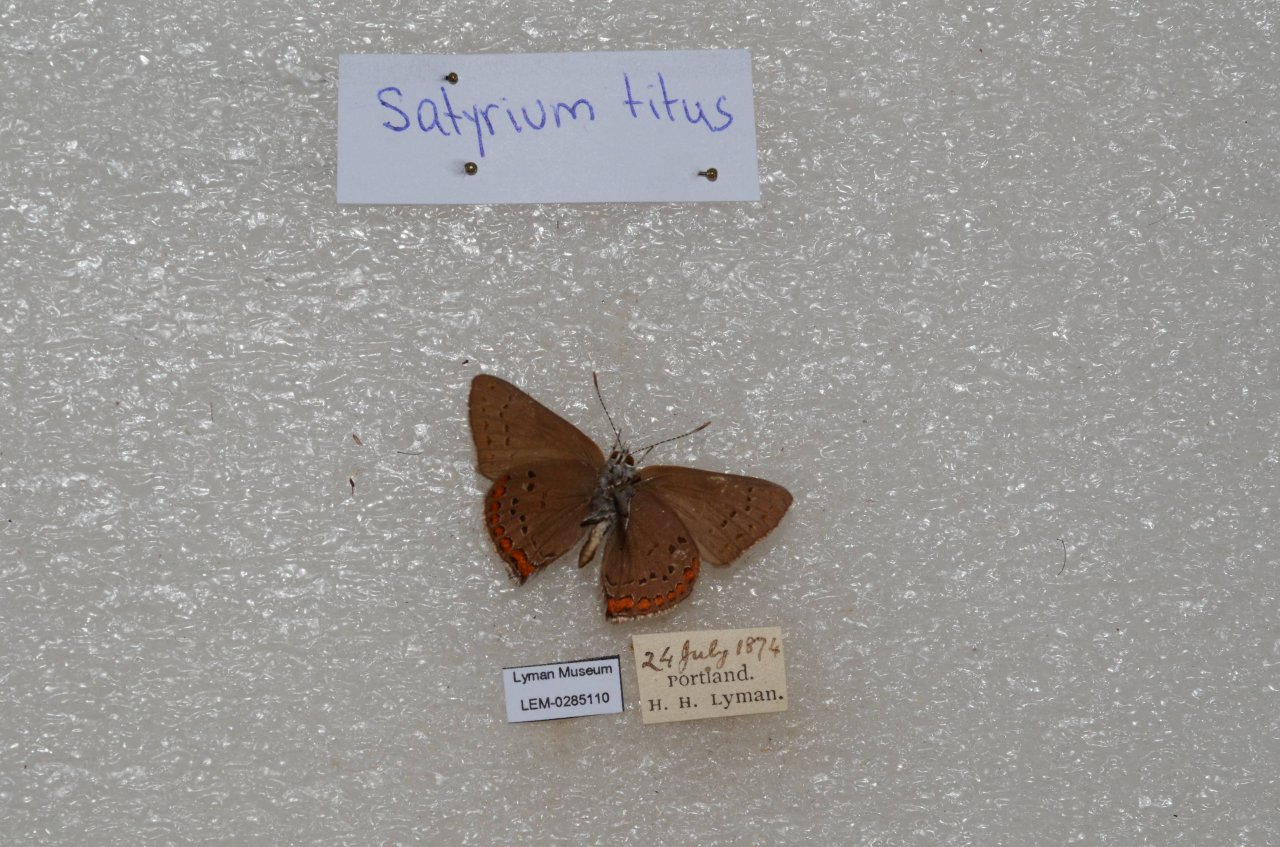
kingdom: Animalia
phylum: Arthropoda
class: Insecta
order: Lepidoptera
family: Lycaenidae
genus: Harkenclenus
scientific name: Harkenclenus titus
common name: Coral Hairstreak
